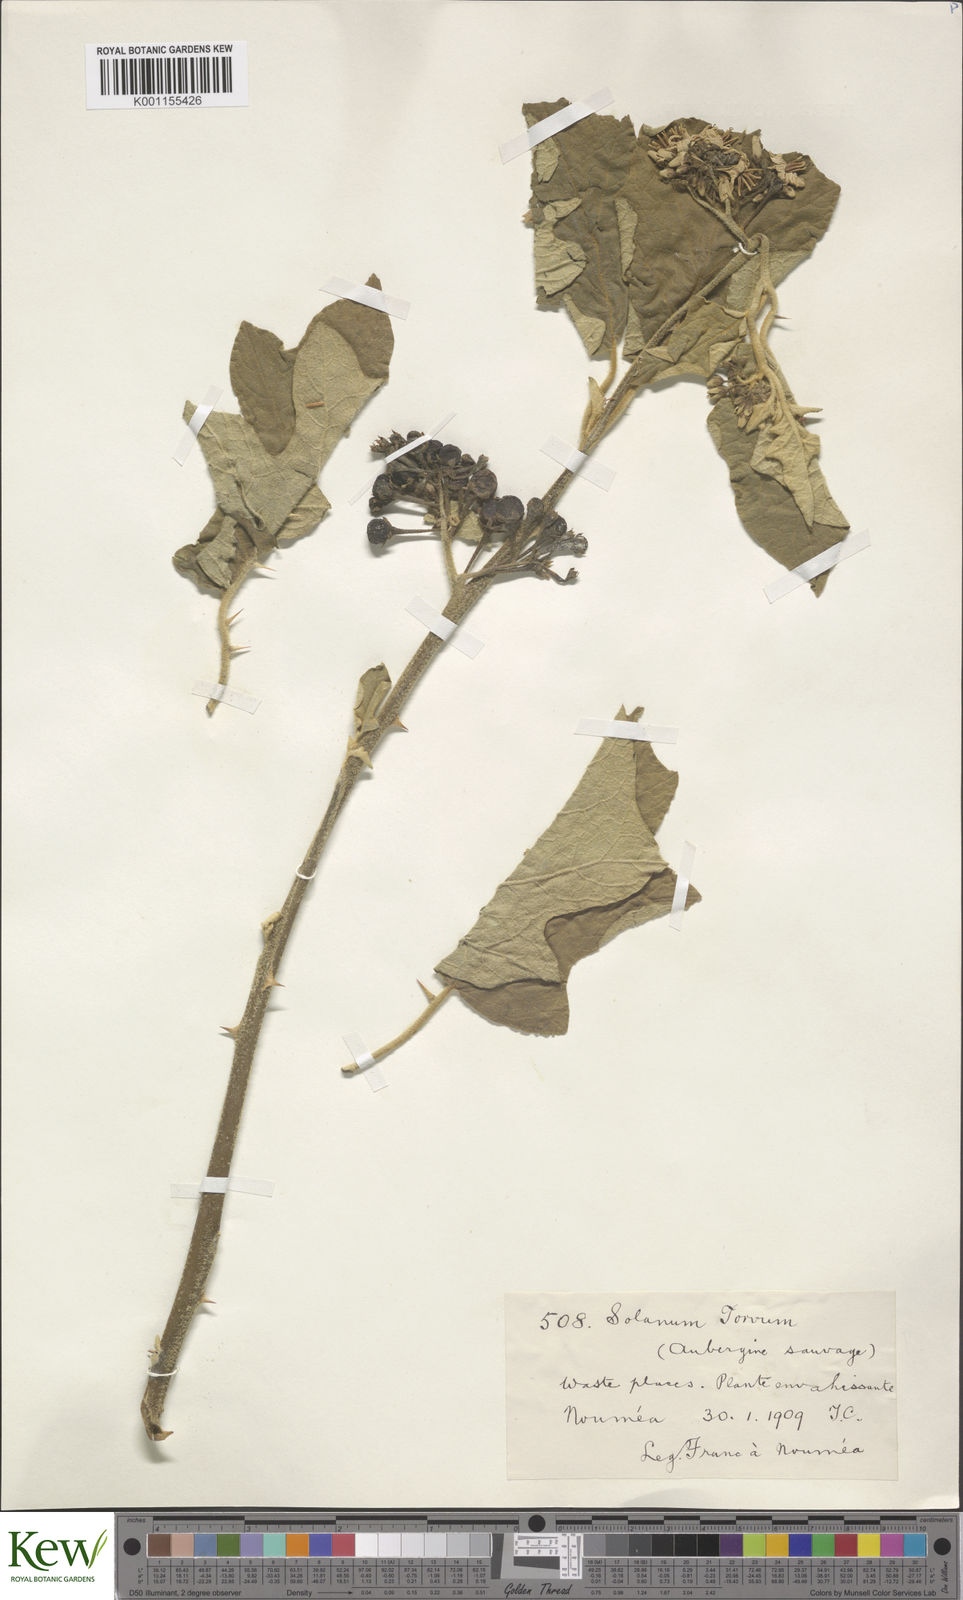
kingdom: Plantae
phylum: Tracheophyta
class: Magnoliopsida
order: Solanales
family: Solanaceae
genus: Solanum
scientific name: Solanum torvum
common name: Turkey berry
